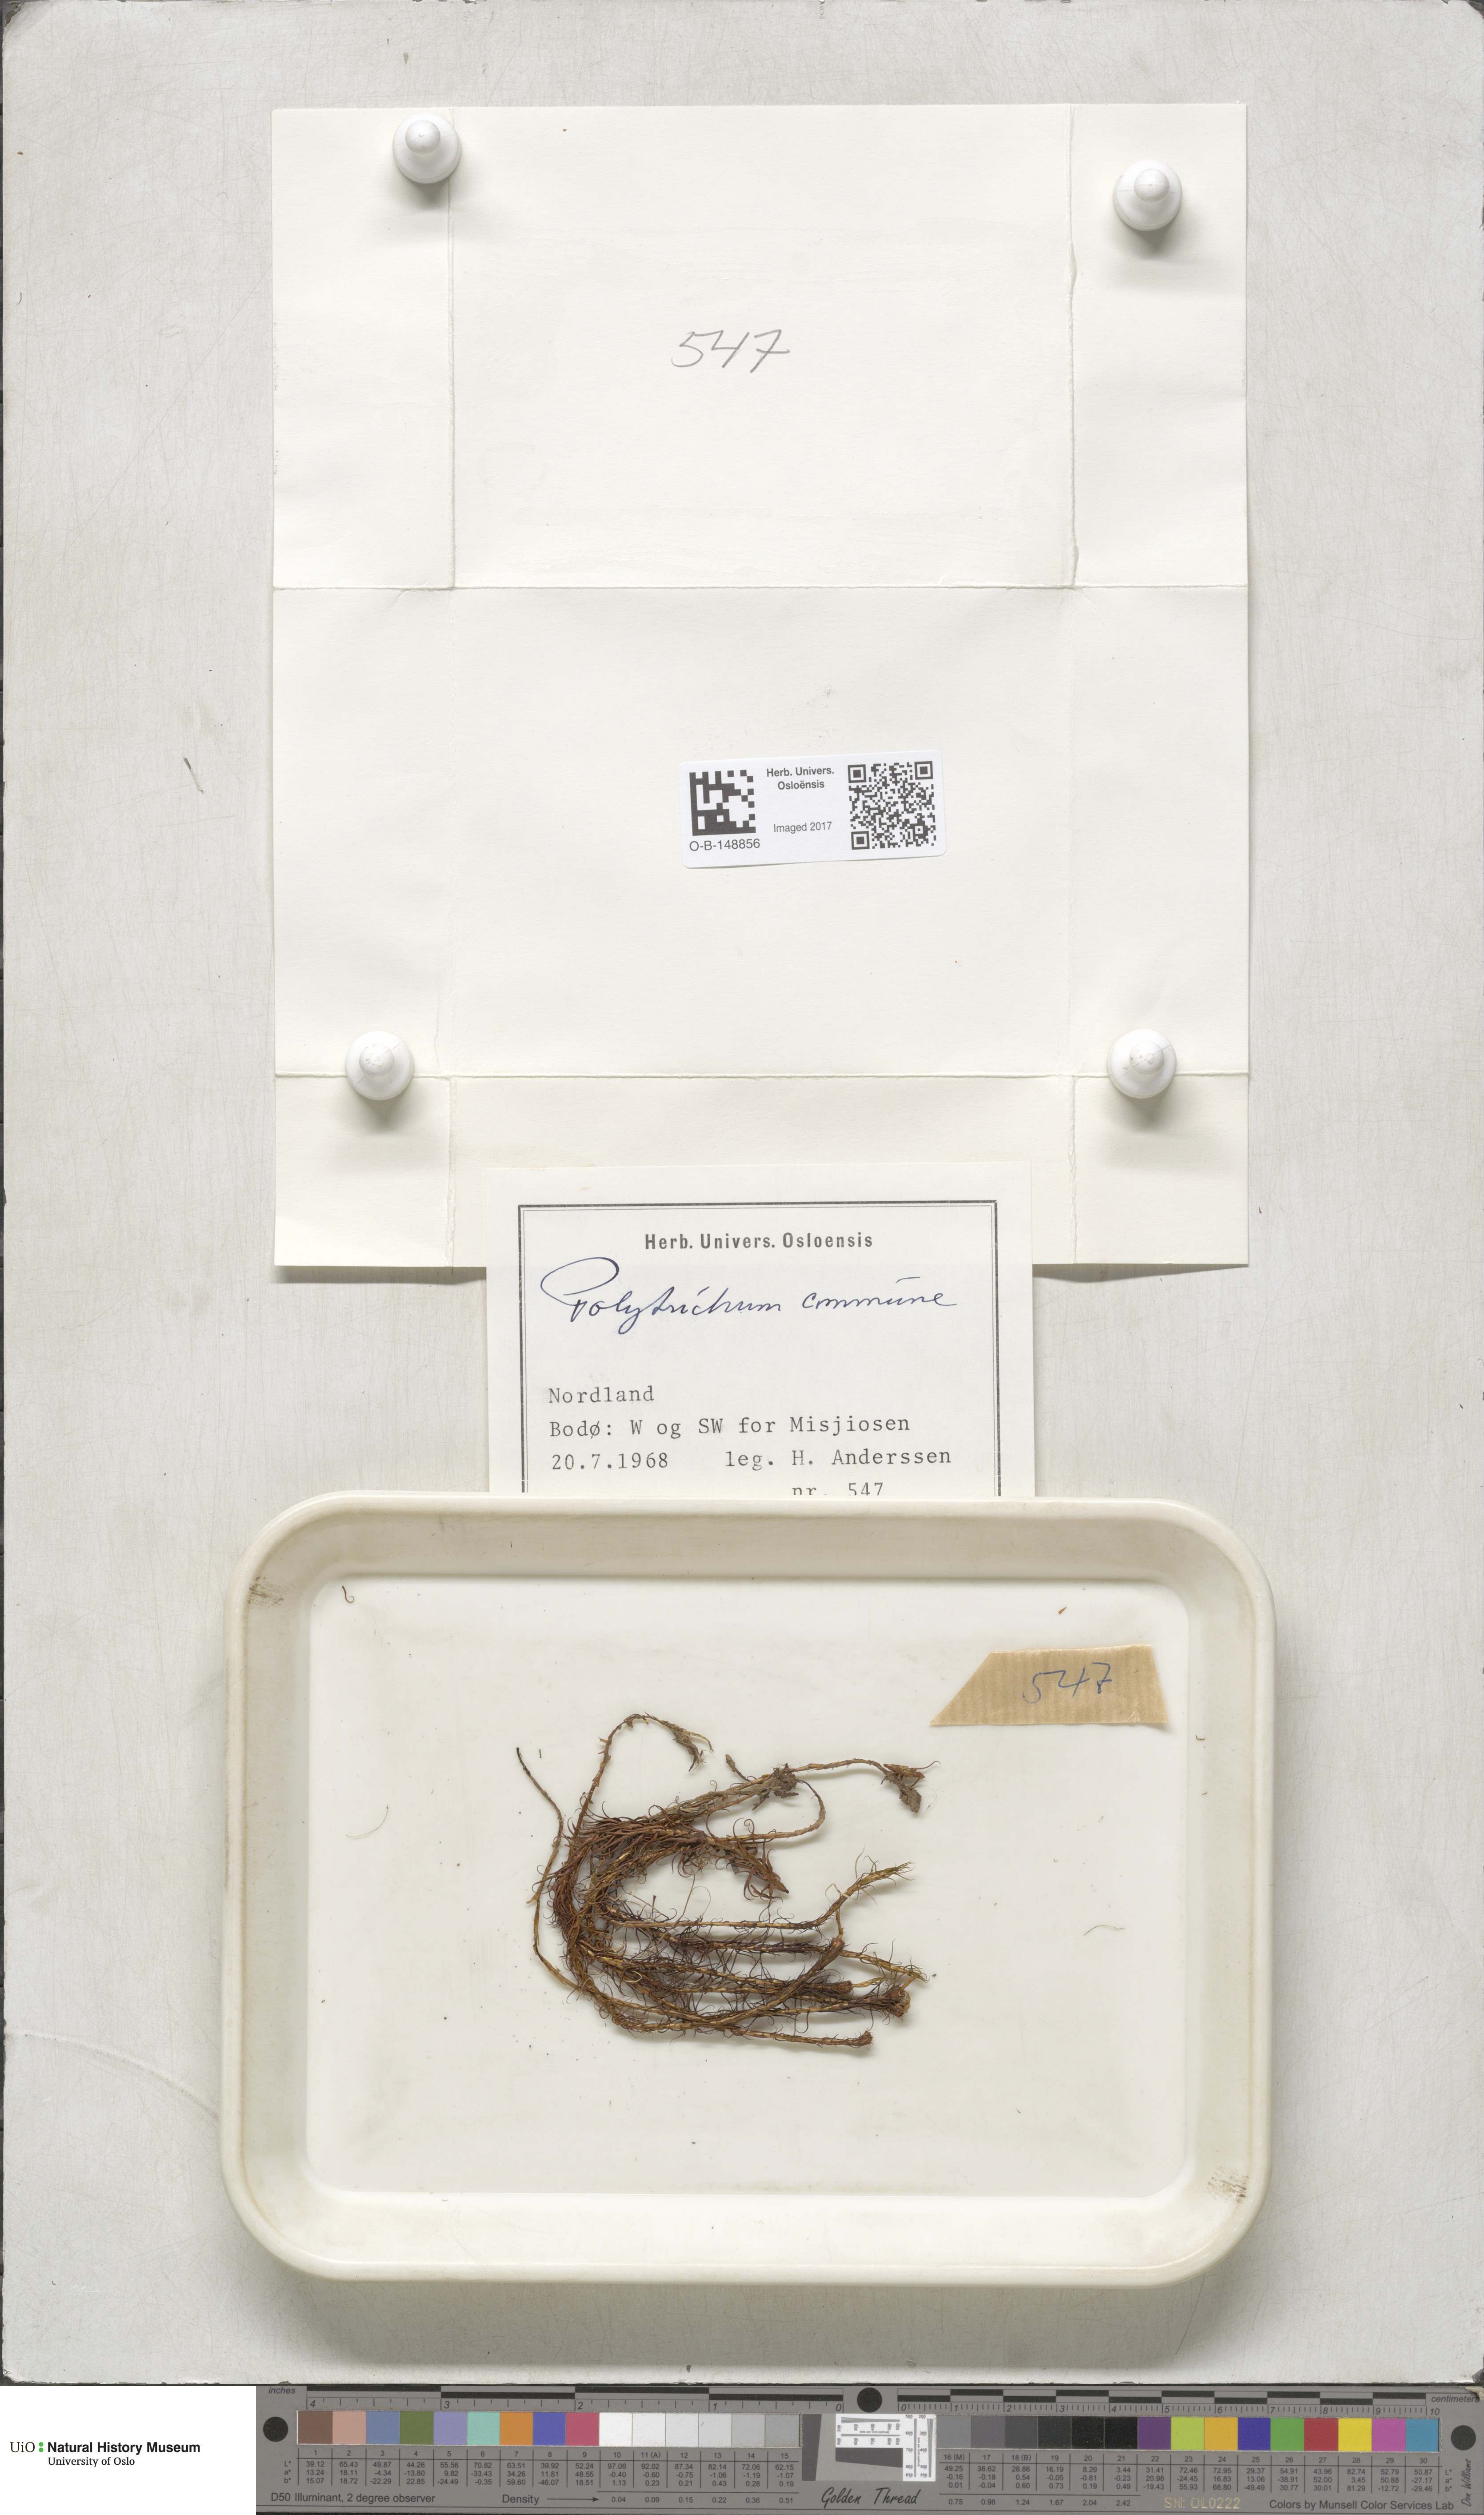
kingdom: Plantae
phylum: Bryophyta
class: Polytrichopsida
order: Polytrichales
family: Polytrichaceae
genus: Polytrichum
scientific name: Polytrichum commune
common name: Common haircap
